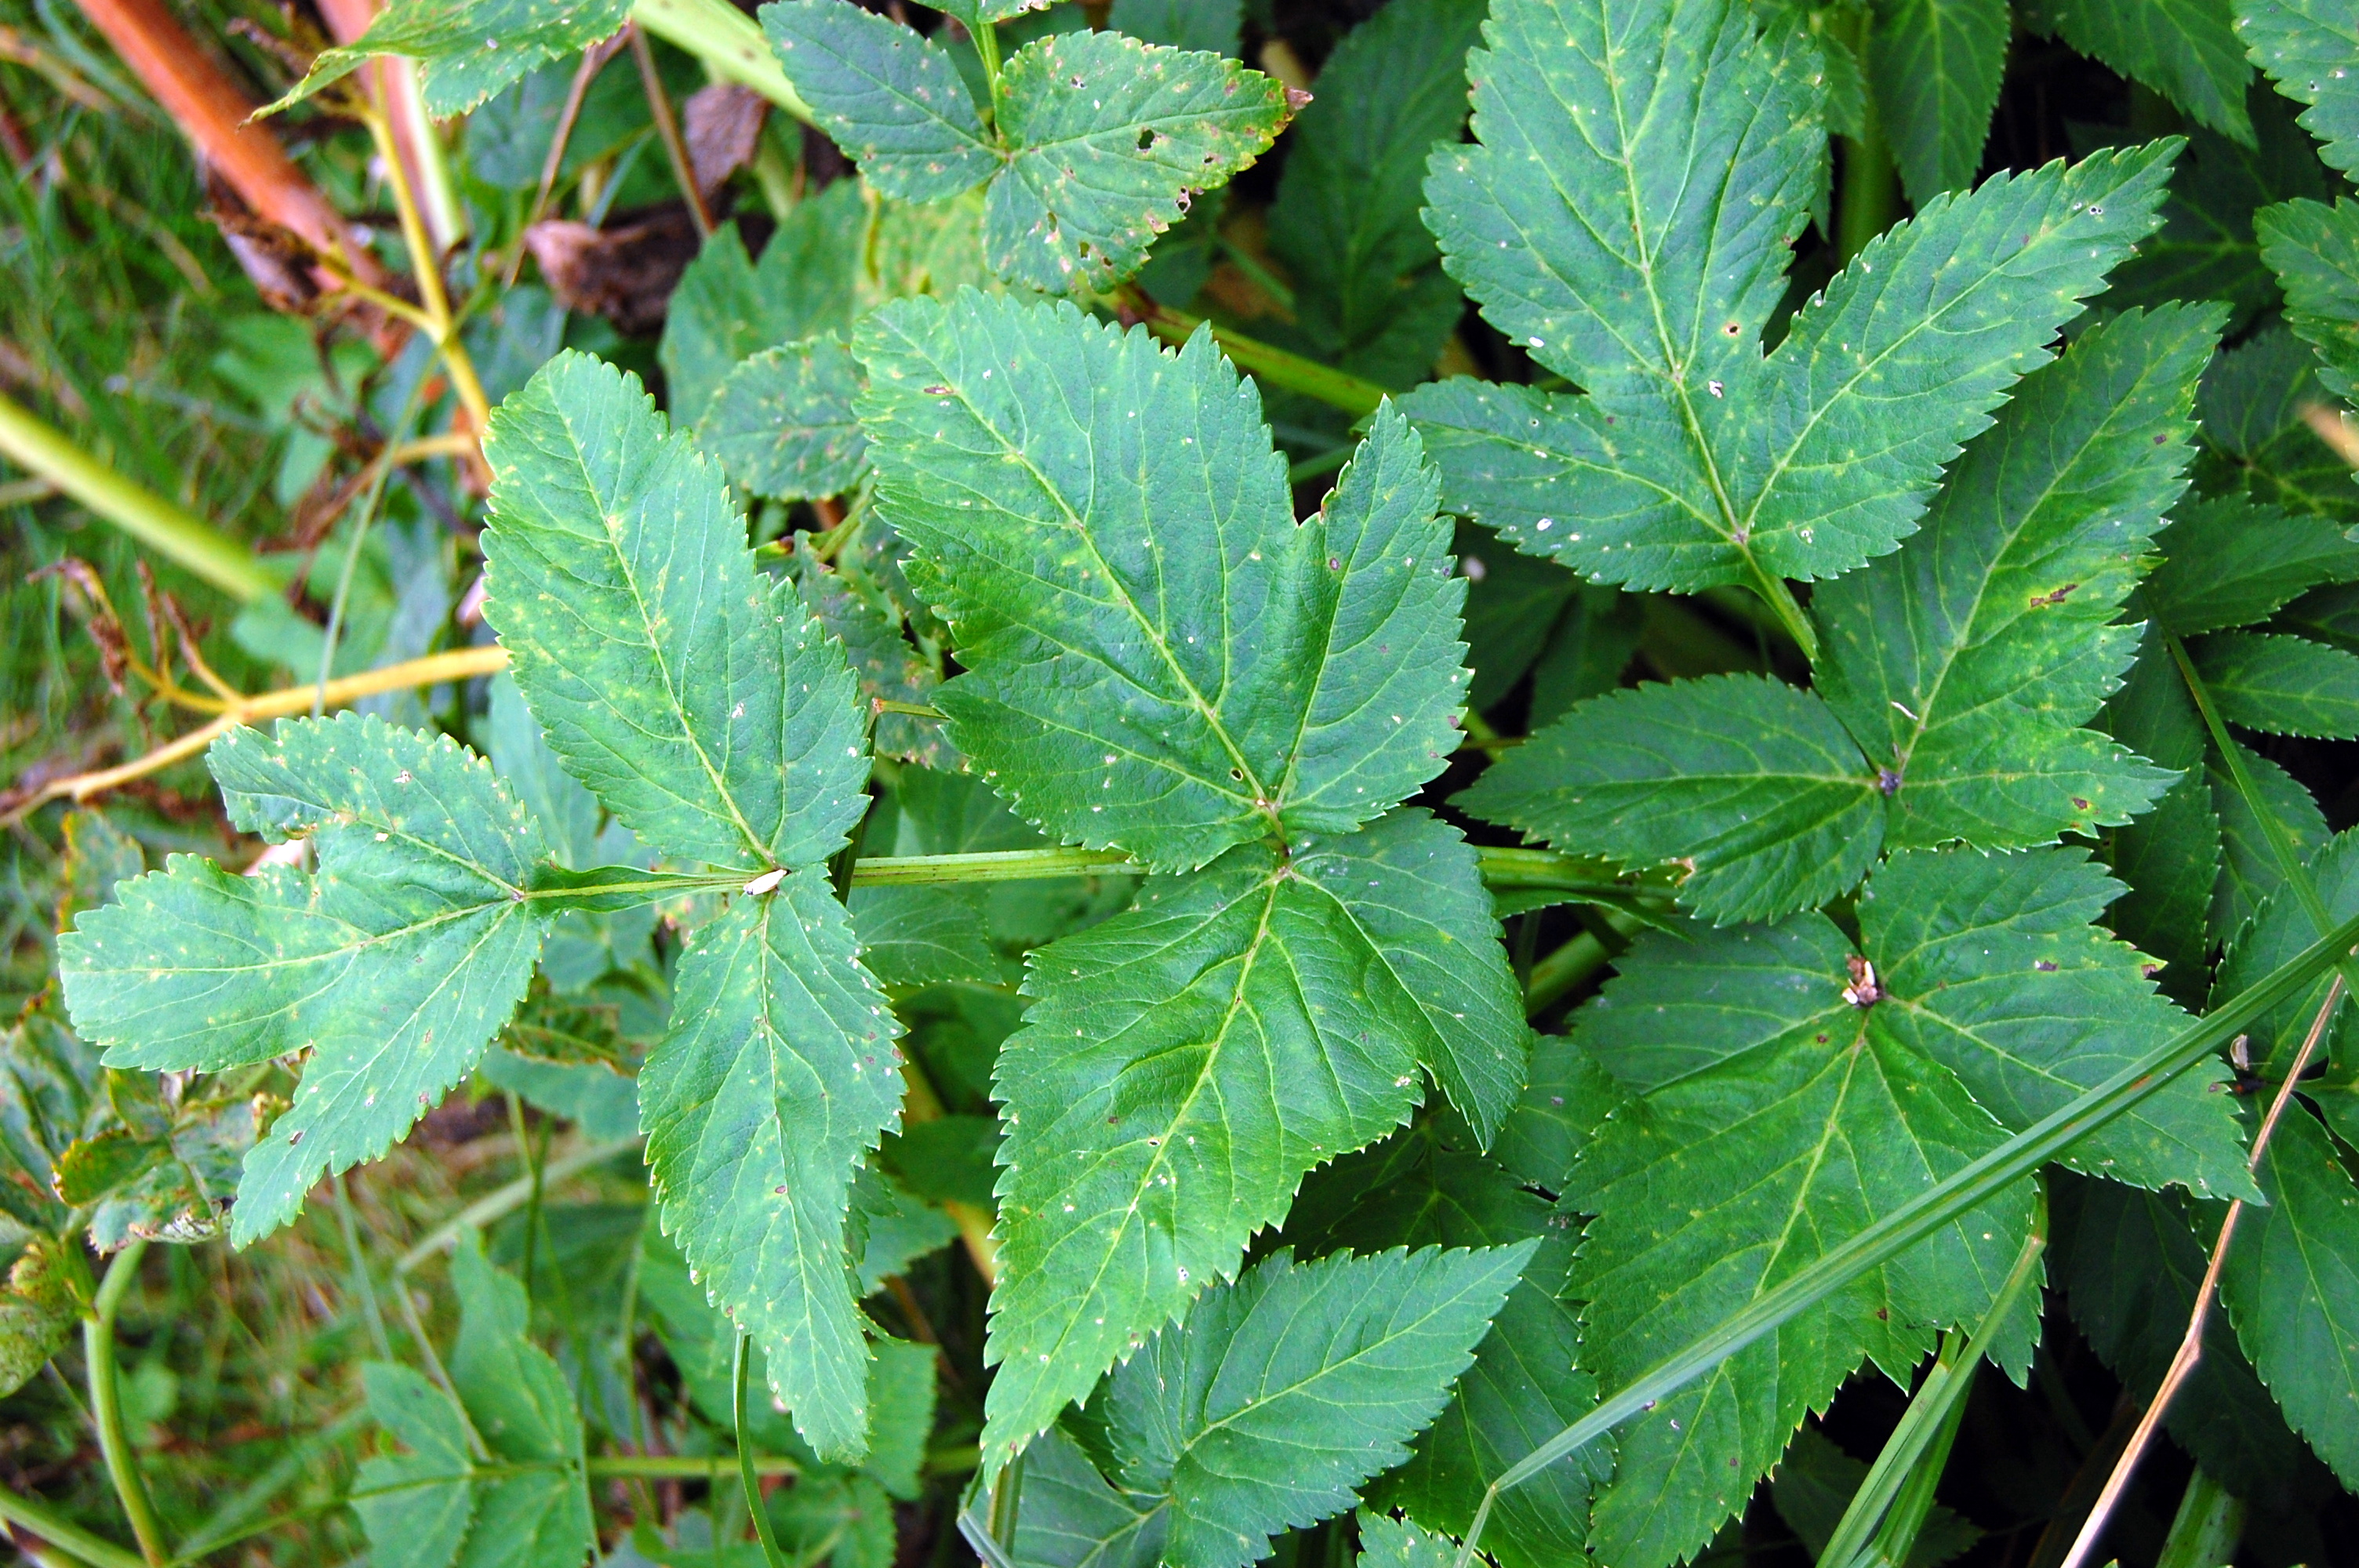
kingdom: Plantae
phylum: Tracheophyta
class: Magnoliopsida
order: Apiales
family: Apiaceae
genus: Angelica
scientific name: Angelica archangelica
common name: Garden angelica
